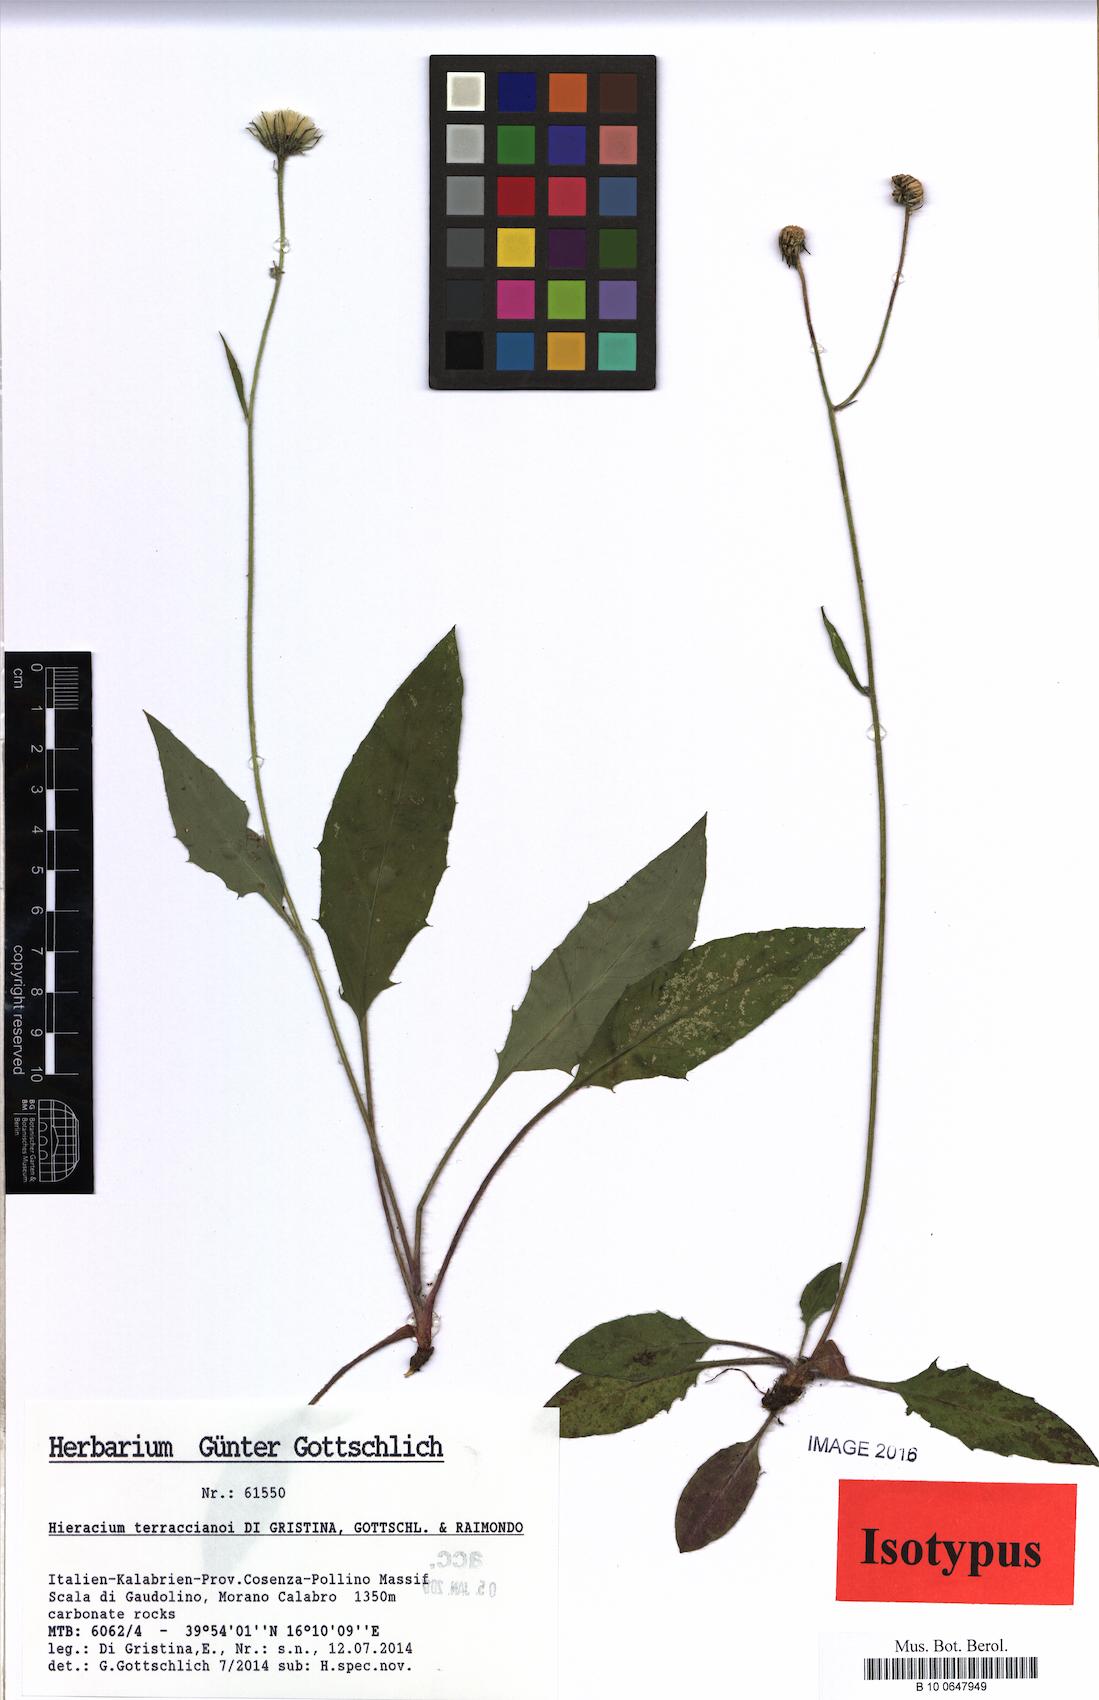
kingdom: Plantae
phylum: Tracheophyta
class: Magnoliopsida
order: Asterales
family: Asteraceae
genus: Hieracium
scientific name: Hieracium terraccianoi
